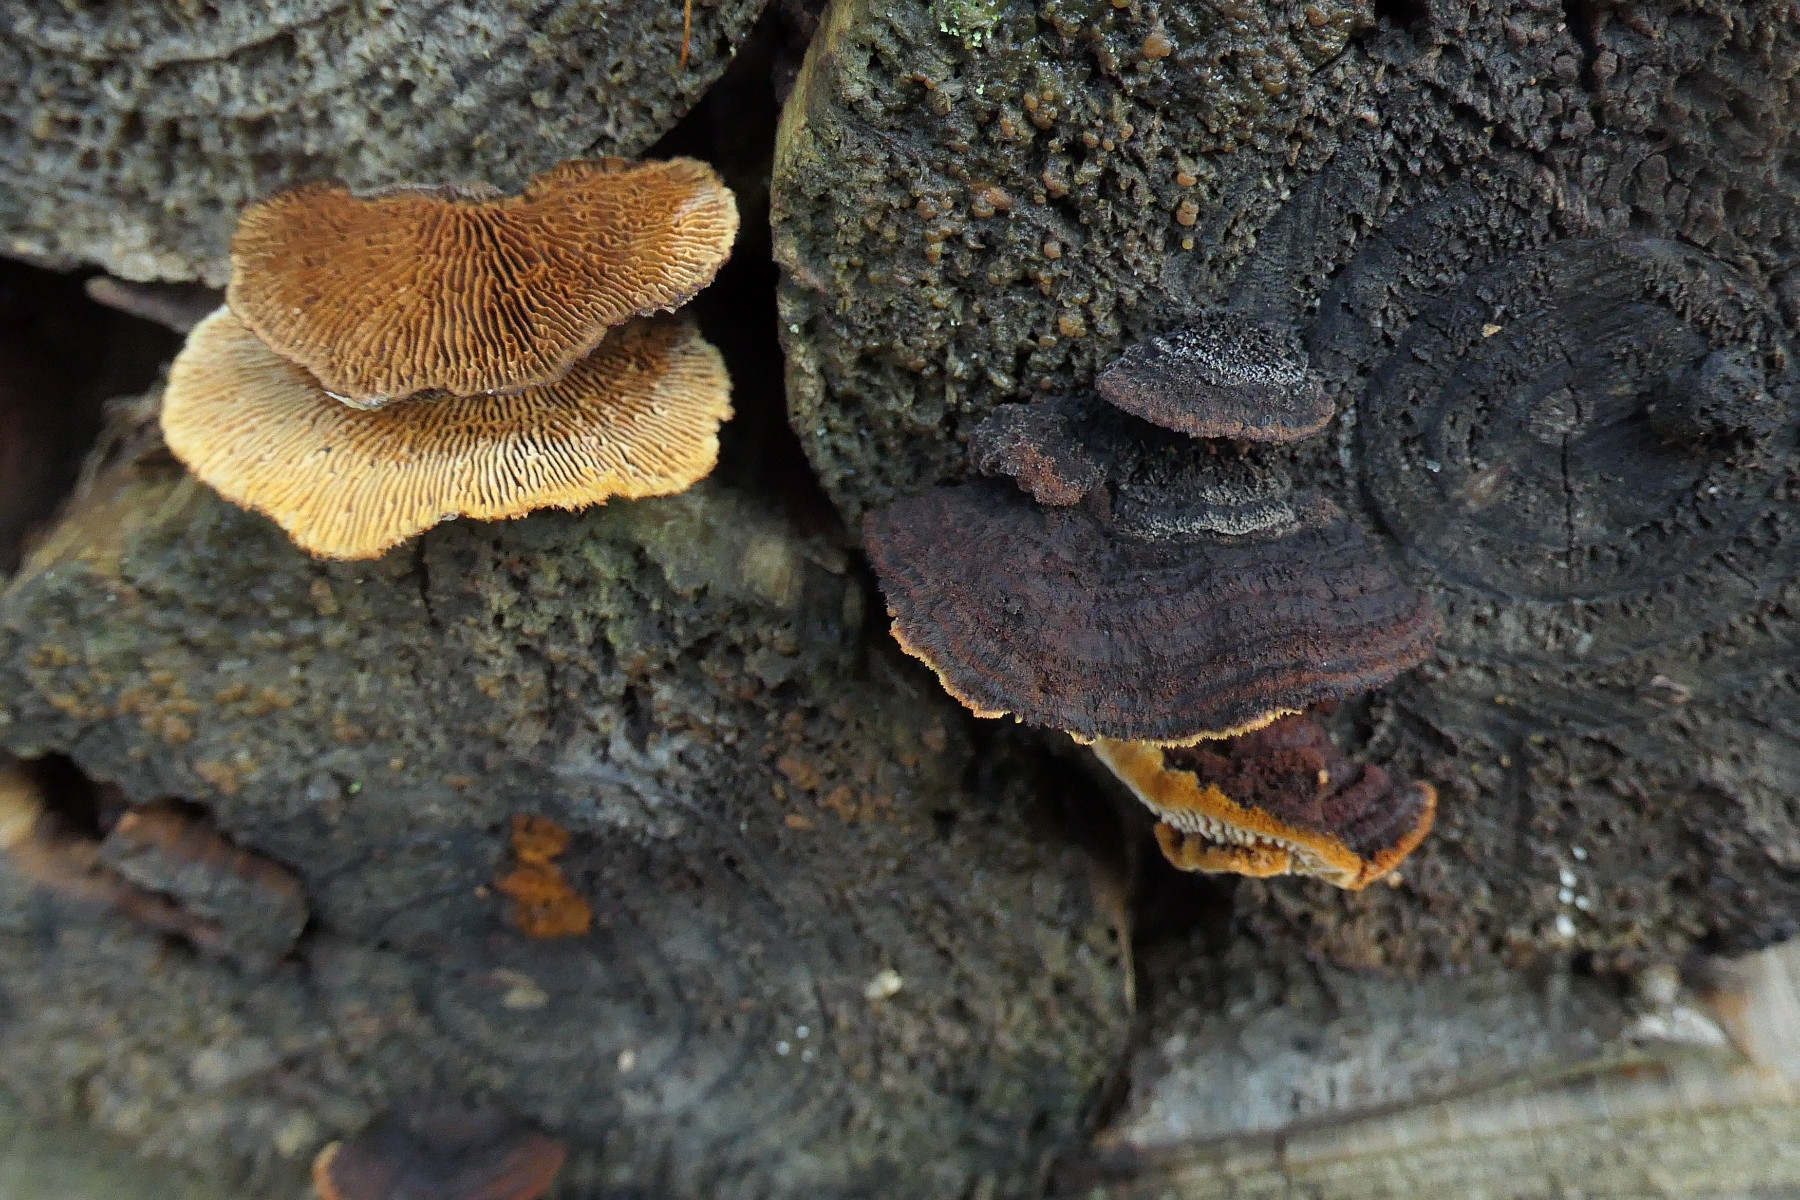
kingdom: Fungi
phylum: Basidiomycota
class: Agaricomycetes
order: Gloeophyllales
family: Gloeophyllaceae
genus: Gloeophyllum
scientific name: Gloeophyllum sepiarium
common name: fyrre-korkhat
